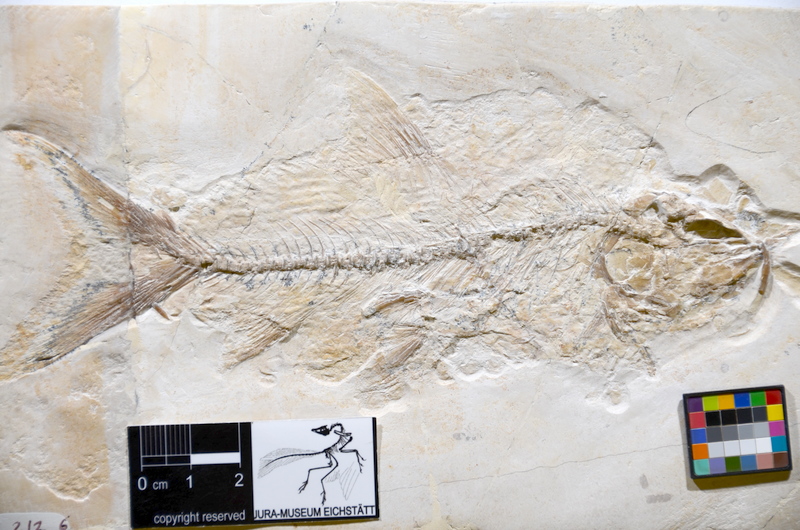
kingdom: Animalia
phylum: Chordata
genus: Tischlingerichthys
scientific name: Tischlingerichthys viohli
